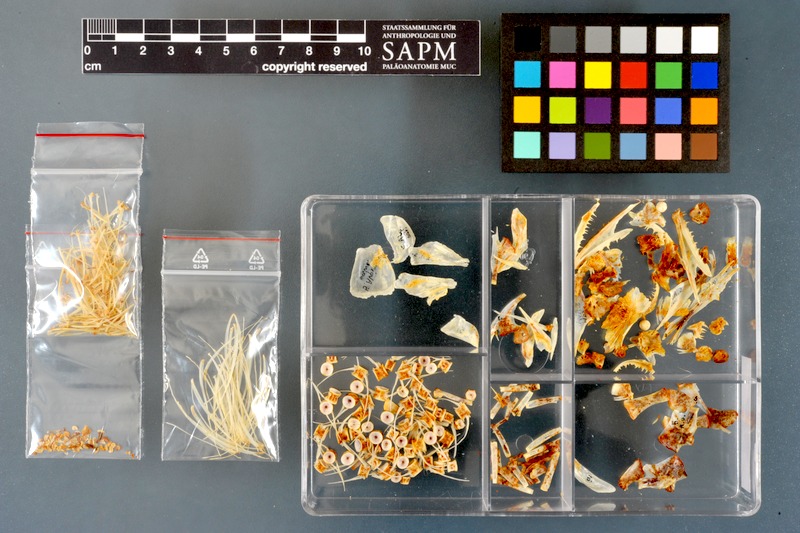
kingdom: Animalia
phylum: Chordata
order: Perciformes
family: Ephippidae
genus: Platax
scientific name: Platax teira
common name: Longfin baitfish
